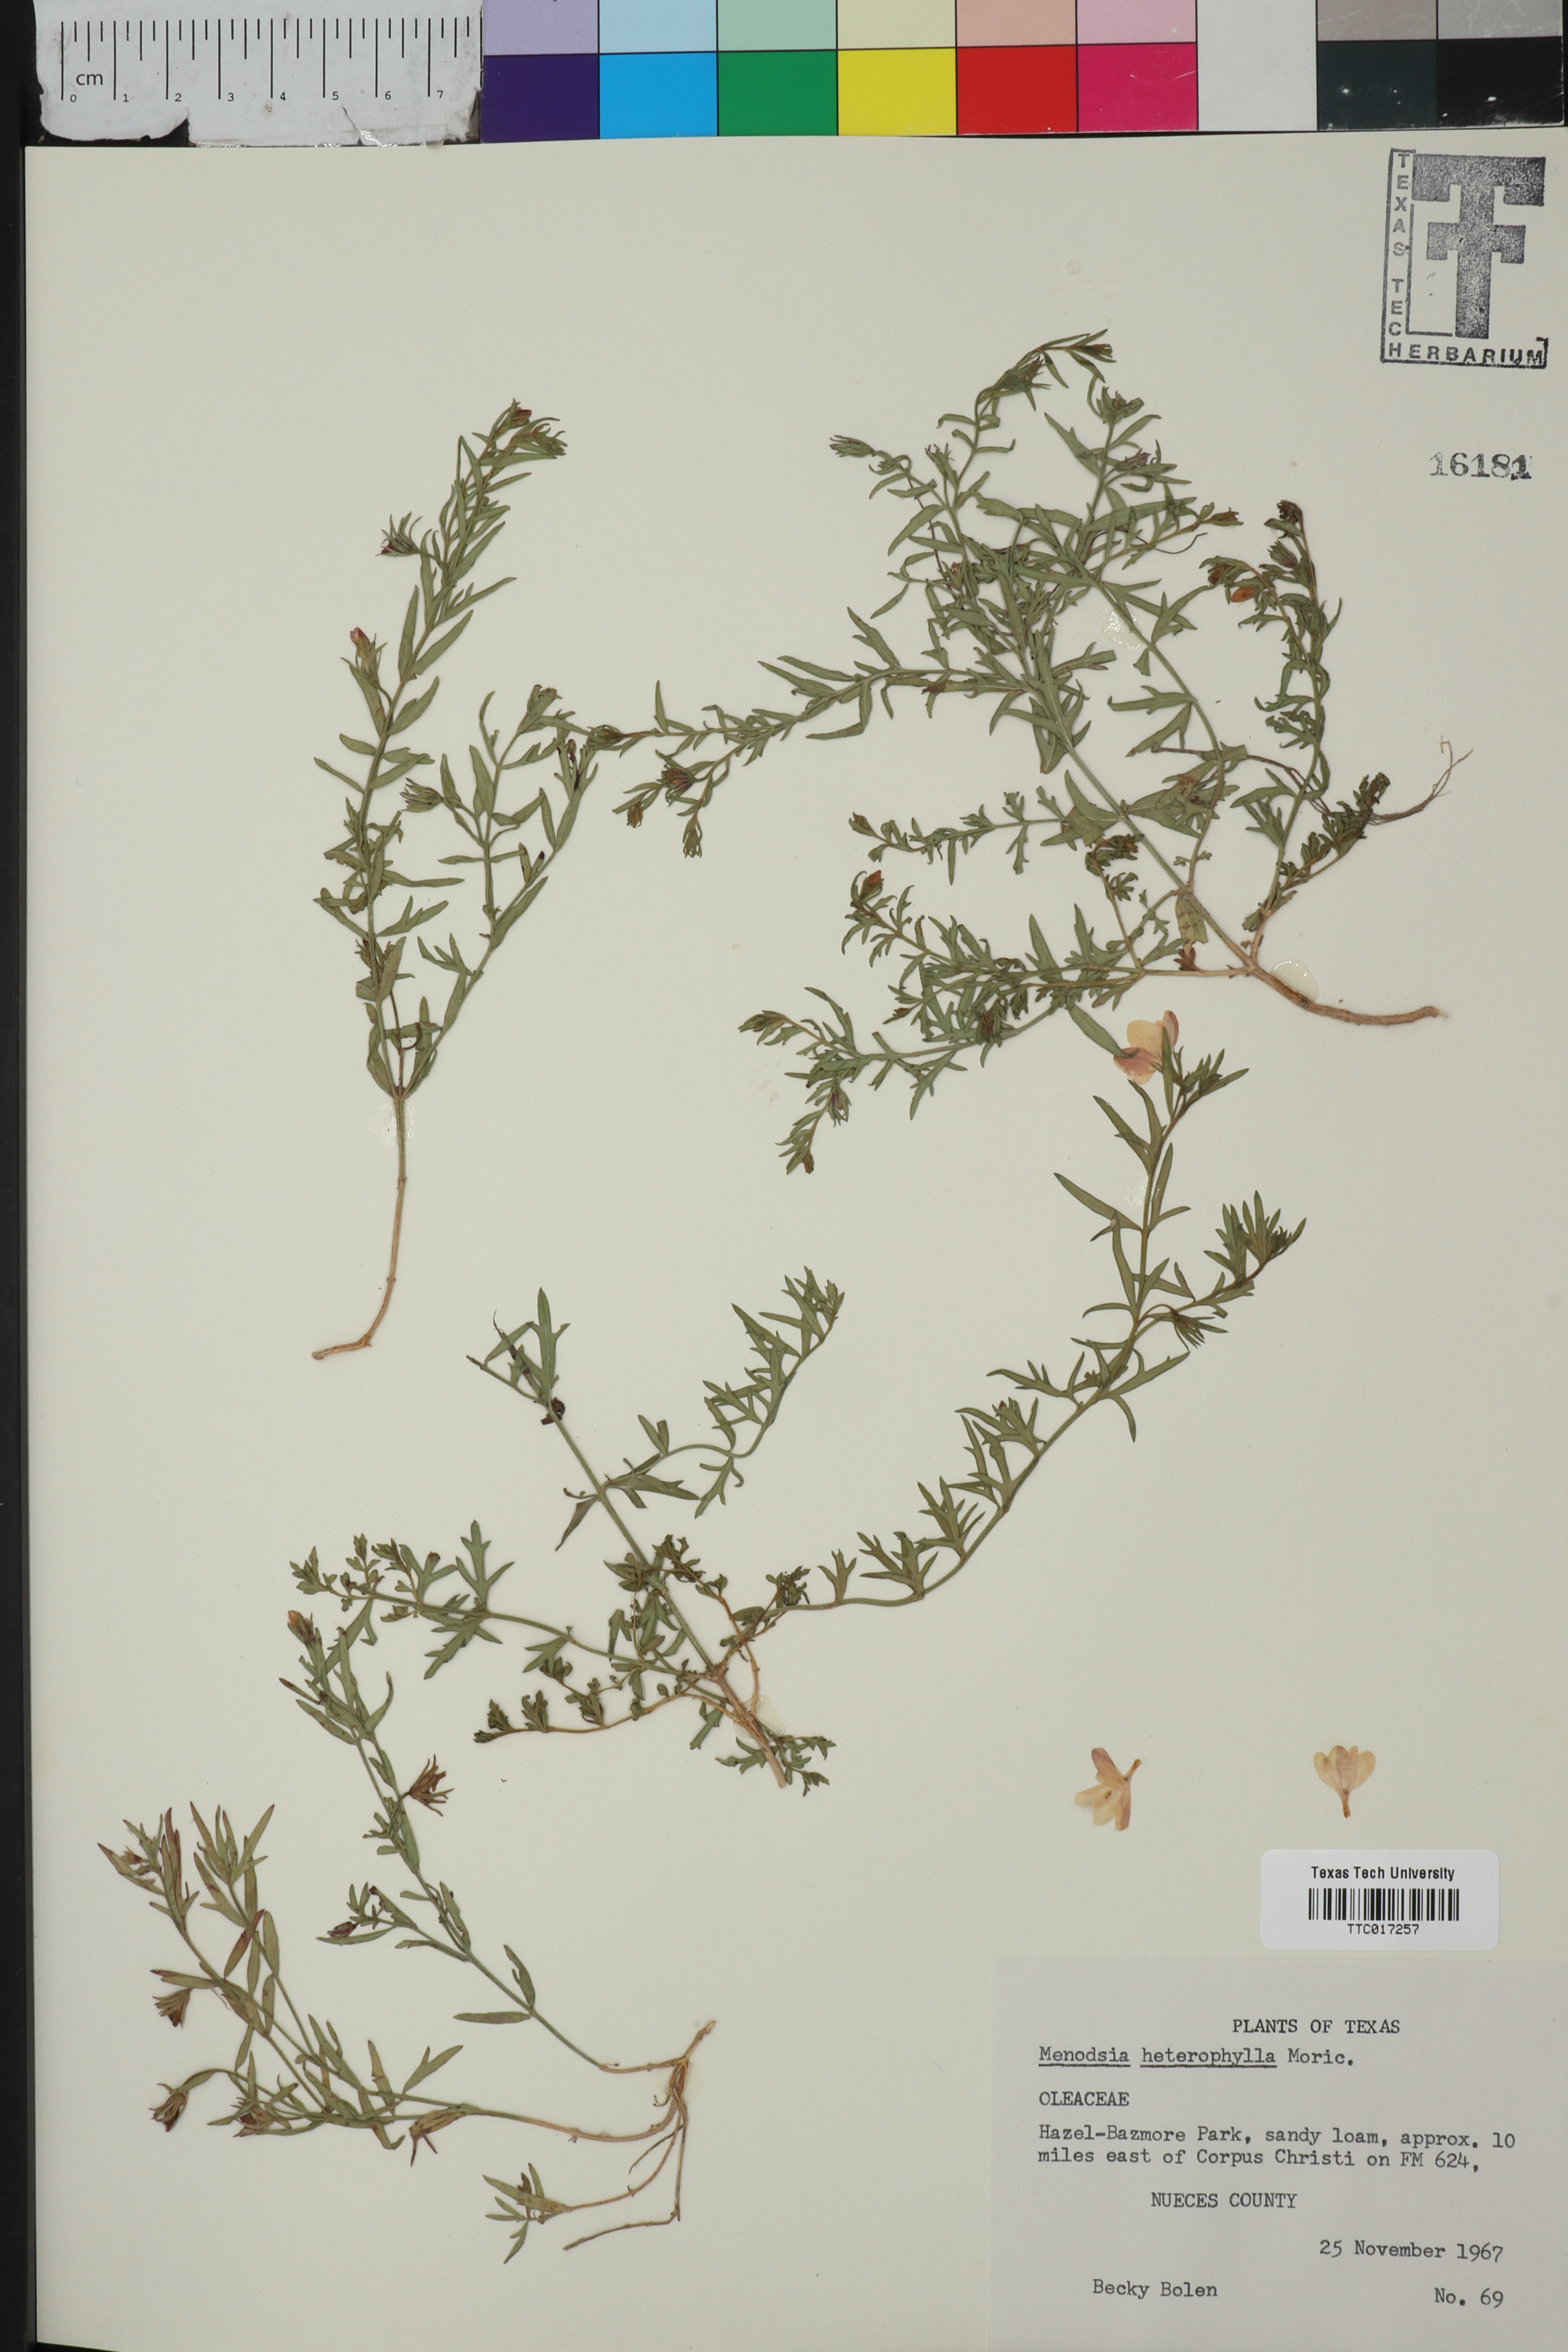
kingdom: Plantae
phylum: Tracheophyta
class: Magnoliopsida
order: Lamiales
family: Oleaceae
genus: Menodora
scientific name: Menodora heterophylla
